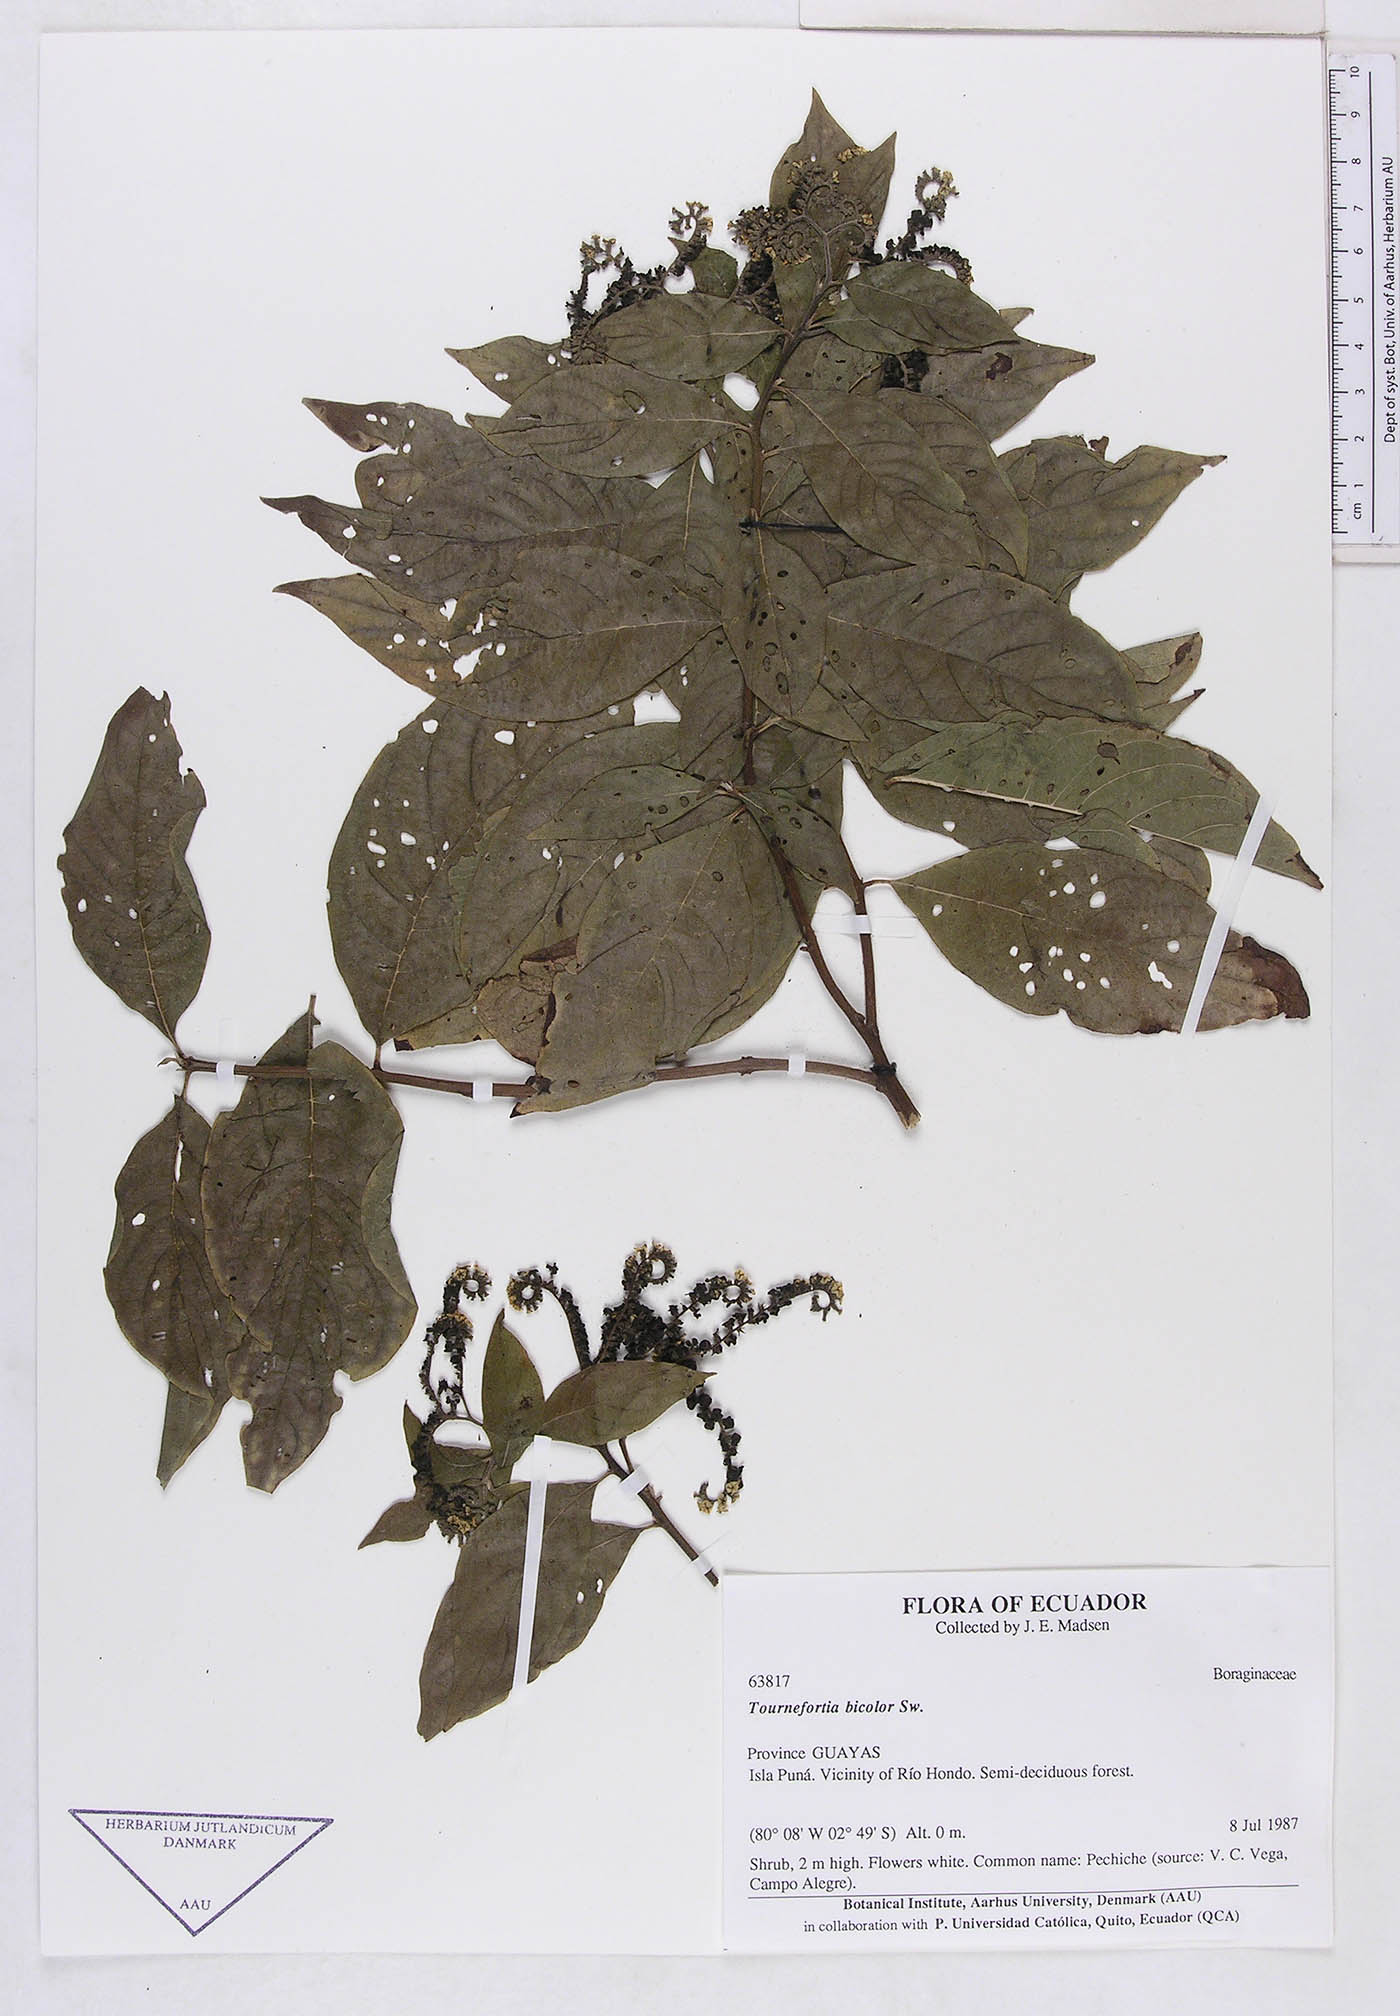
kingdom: Plantae
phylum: Tracheophyta
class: Magnoliopsida
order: Boraginales
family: Heliotropiaceae
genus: Tournefortia
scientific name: Tournefortia
